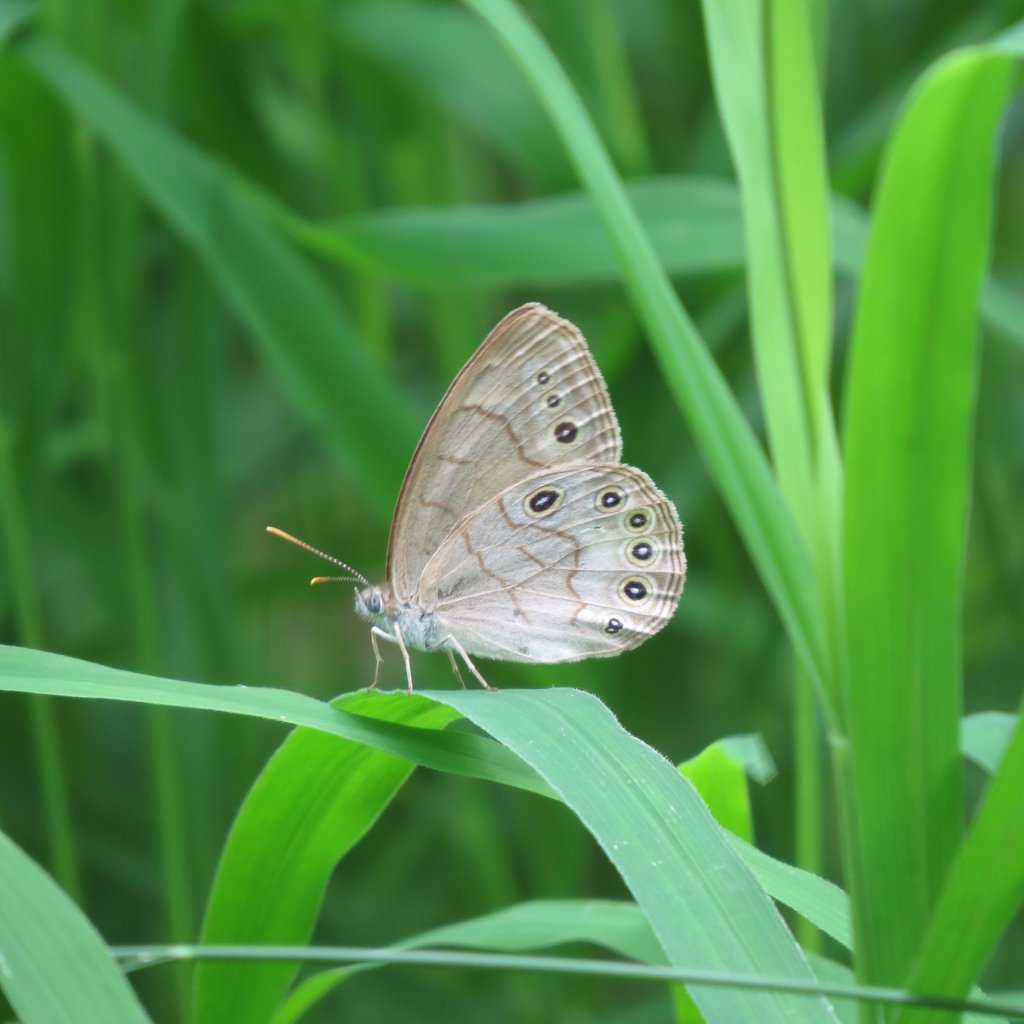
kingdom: Animalia
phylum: Arthropoda
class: Insecta
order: Lepidoptera
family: Nymphalidae
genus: Lethe
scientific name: Lethe eurydice
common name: Appalachian Eyed Brown
